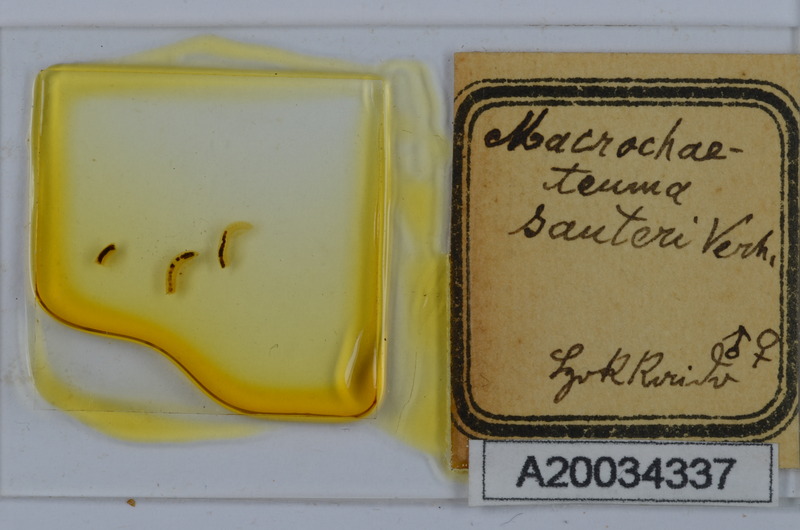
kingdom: Animalia
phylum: Arthropoda
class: Diplopoda
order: Chordeumatida
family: Macrochaeteumatidae
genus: Macrochaeteuma
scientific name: Macrochaeteuma sauteri
